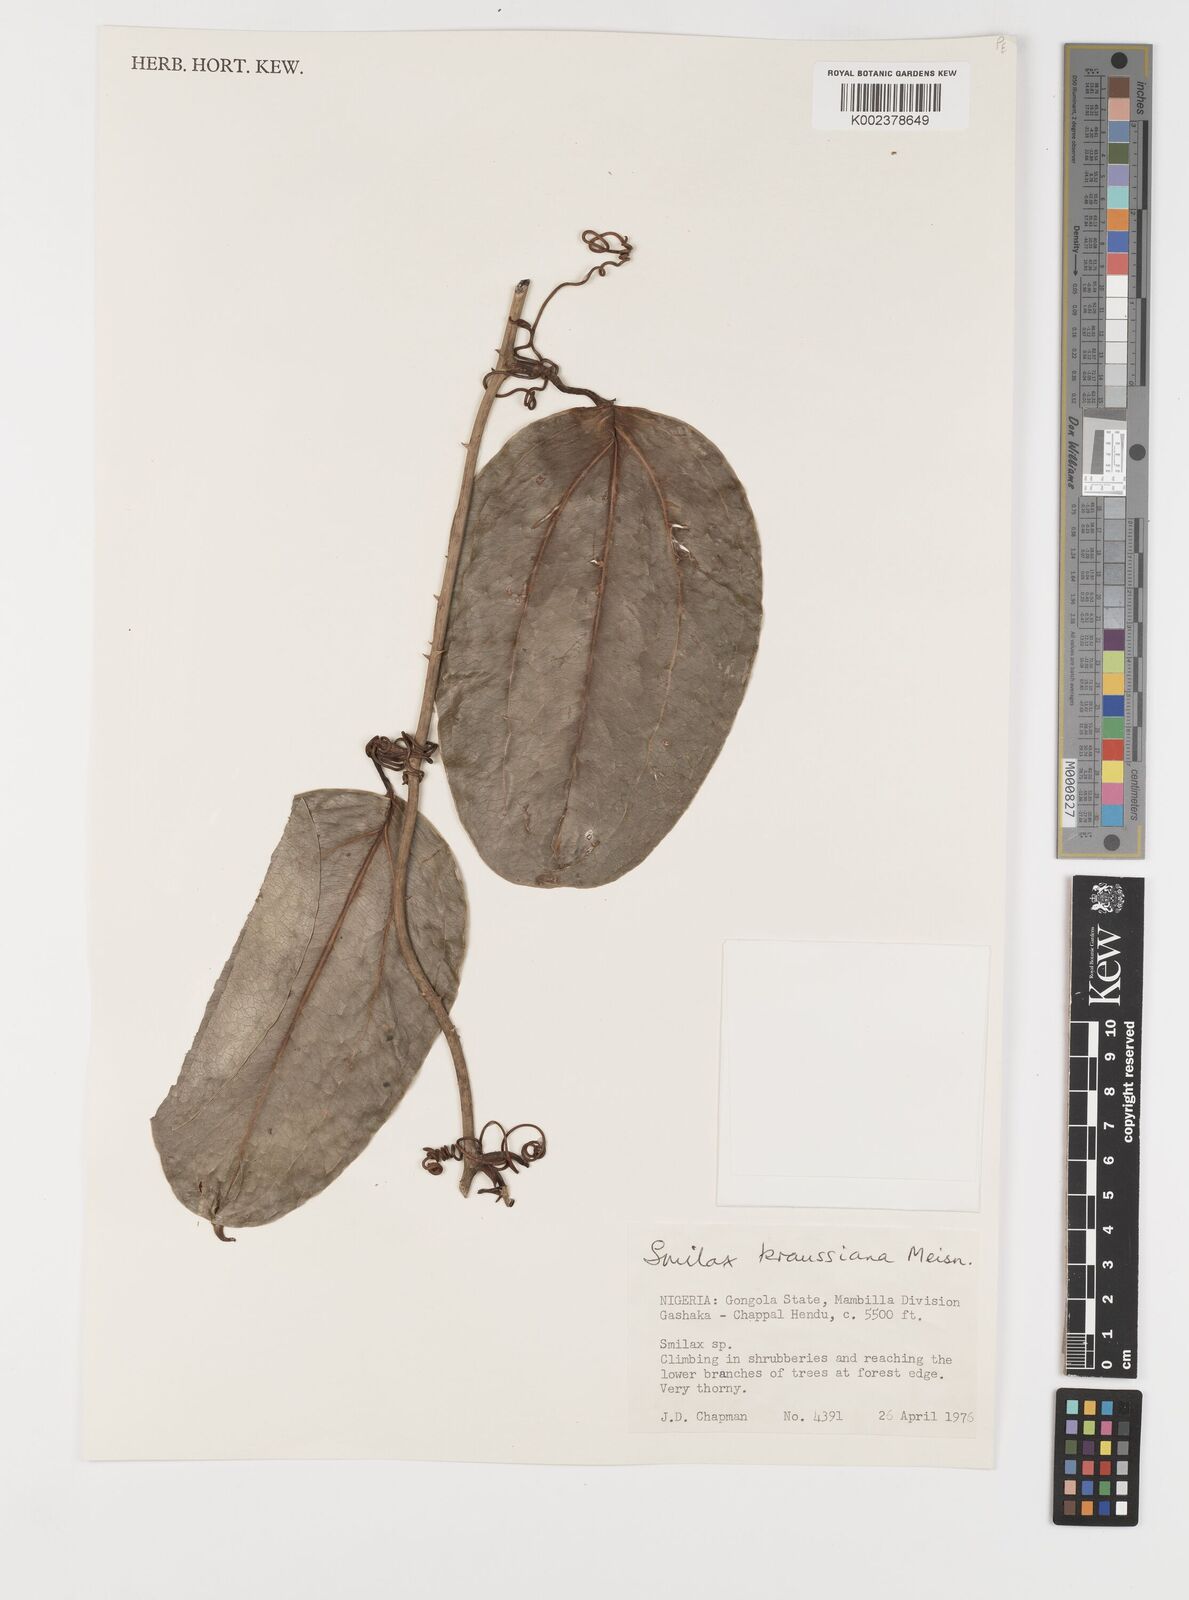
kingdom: Plantae
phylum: Tracheophyta
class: Liliopsida
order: Liliales
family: Smilacaceae
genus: Smilax
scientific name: Smilax anceps
